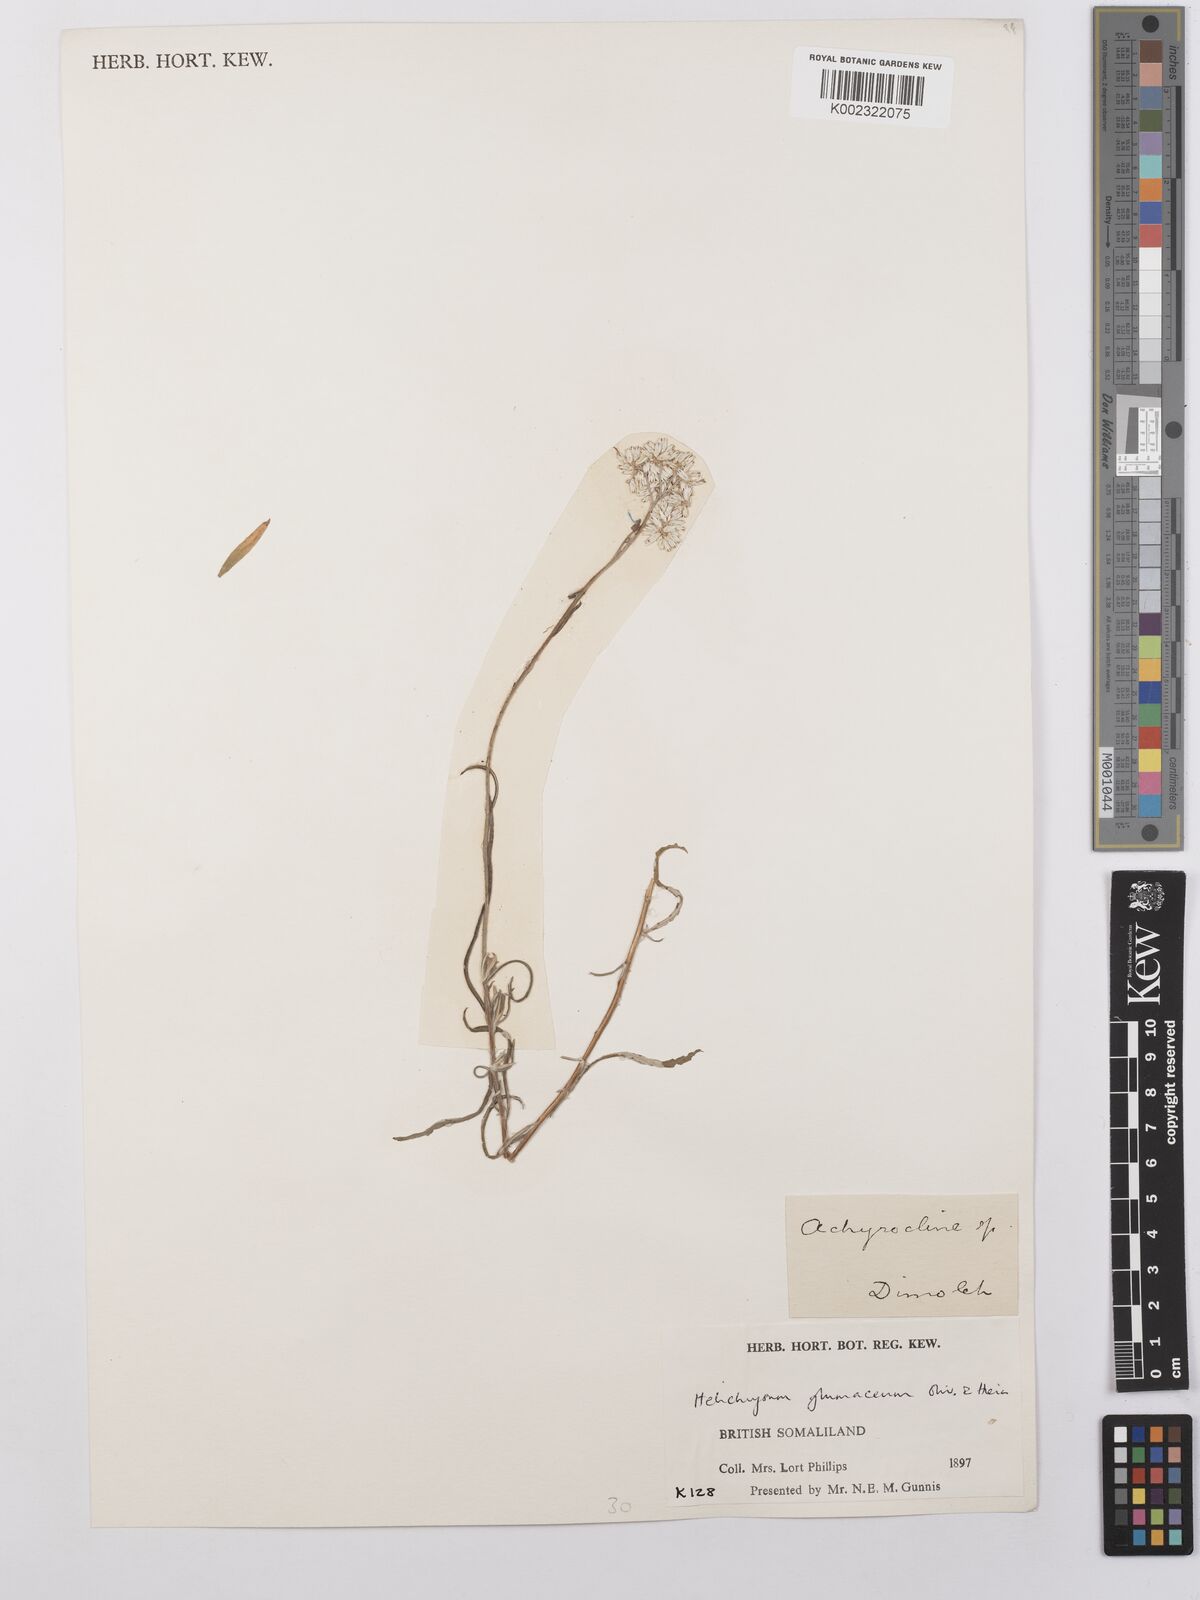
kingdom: Plantae
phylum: Tracheophyta
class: Magnoliopsida
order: Asterales
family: Asteraceae
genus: Helichrysum
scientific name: Helichrysum glumaceum
